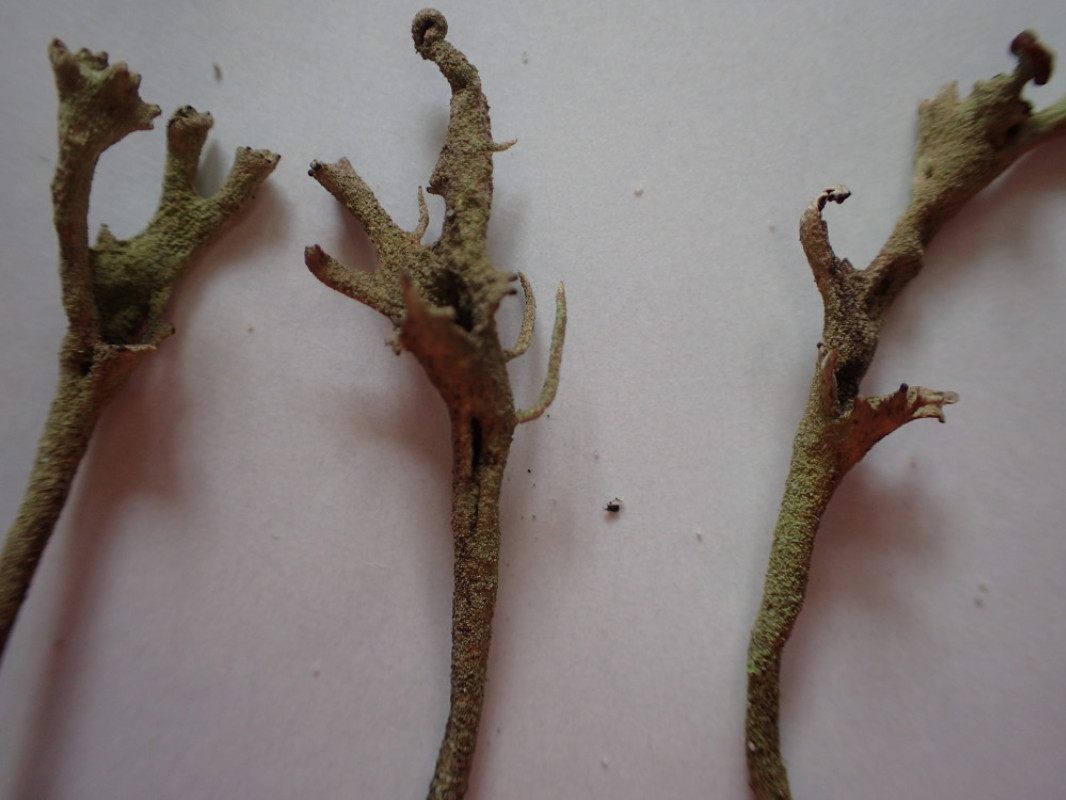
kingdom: Fungi
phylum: Ascomycota
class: Lecanoromycetes
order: Lecanorales
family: Cladoniaceae
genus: Cladonia
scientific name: Cladonia subulata
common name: spids bægerlav
